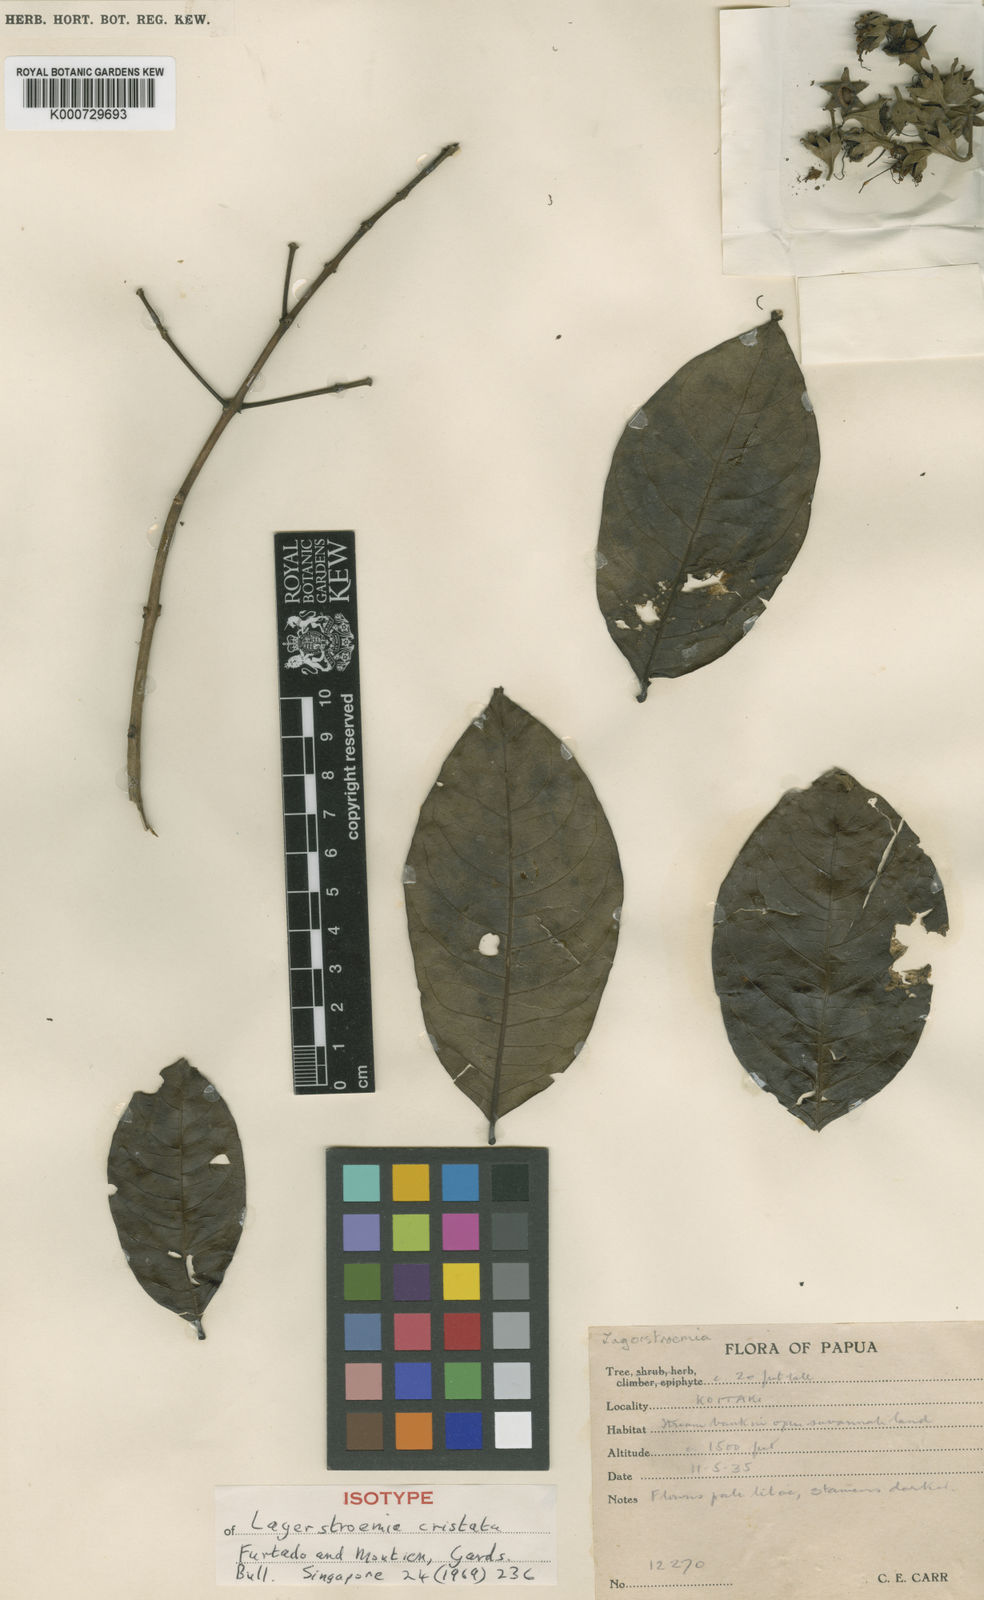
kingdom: Plantae
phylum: Tracheophyta
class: Magnoliopsida
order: Myrtales
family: Lythraceae
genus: Lagerstroemia
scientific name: Lagerstroemia
